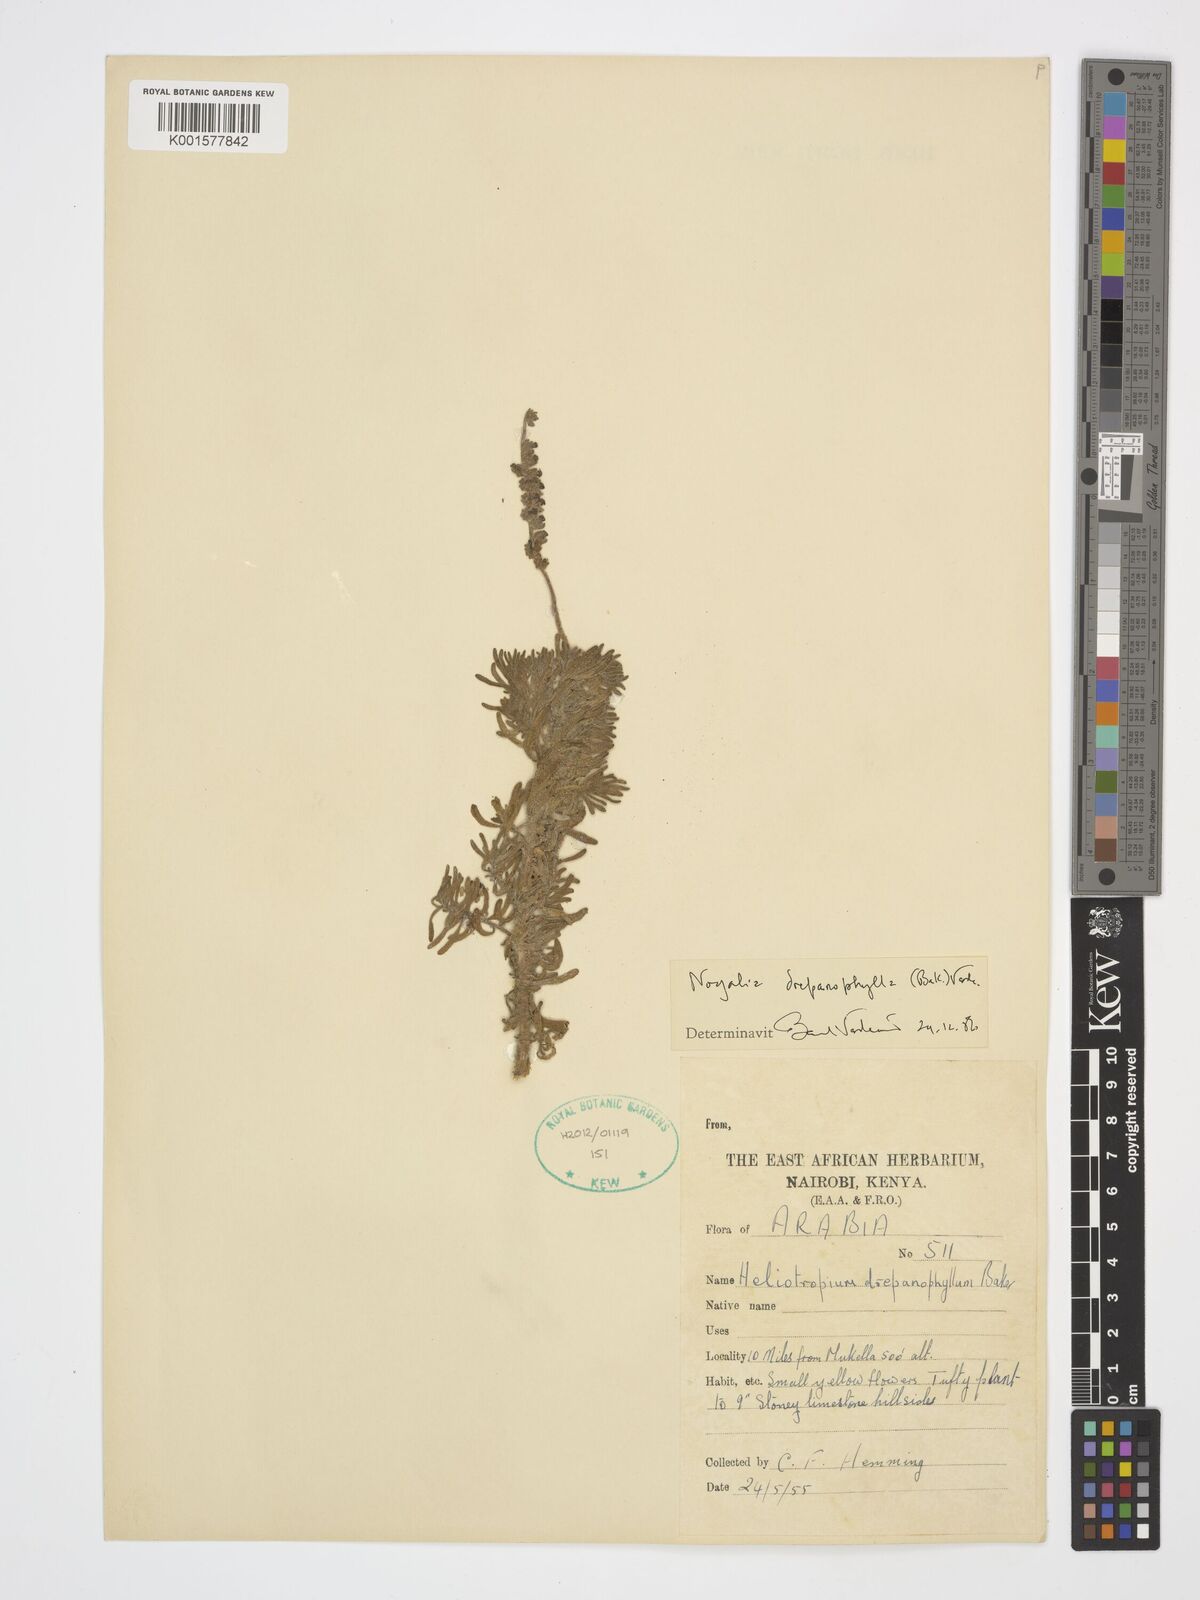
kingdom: Plantae
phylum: Tracheophyta
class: Magnoliopsida
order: Boraginales
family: Heliotropiaceae
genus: Heliotropium
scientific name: Heliotropium drepanophyllum
